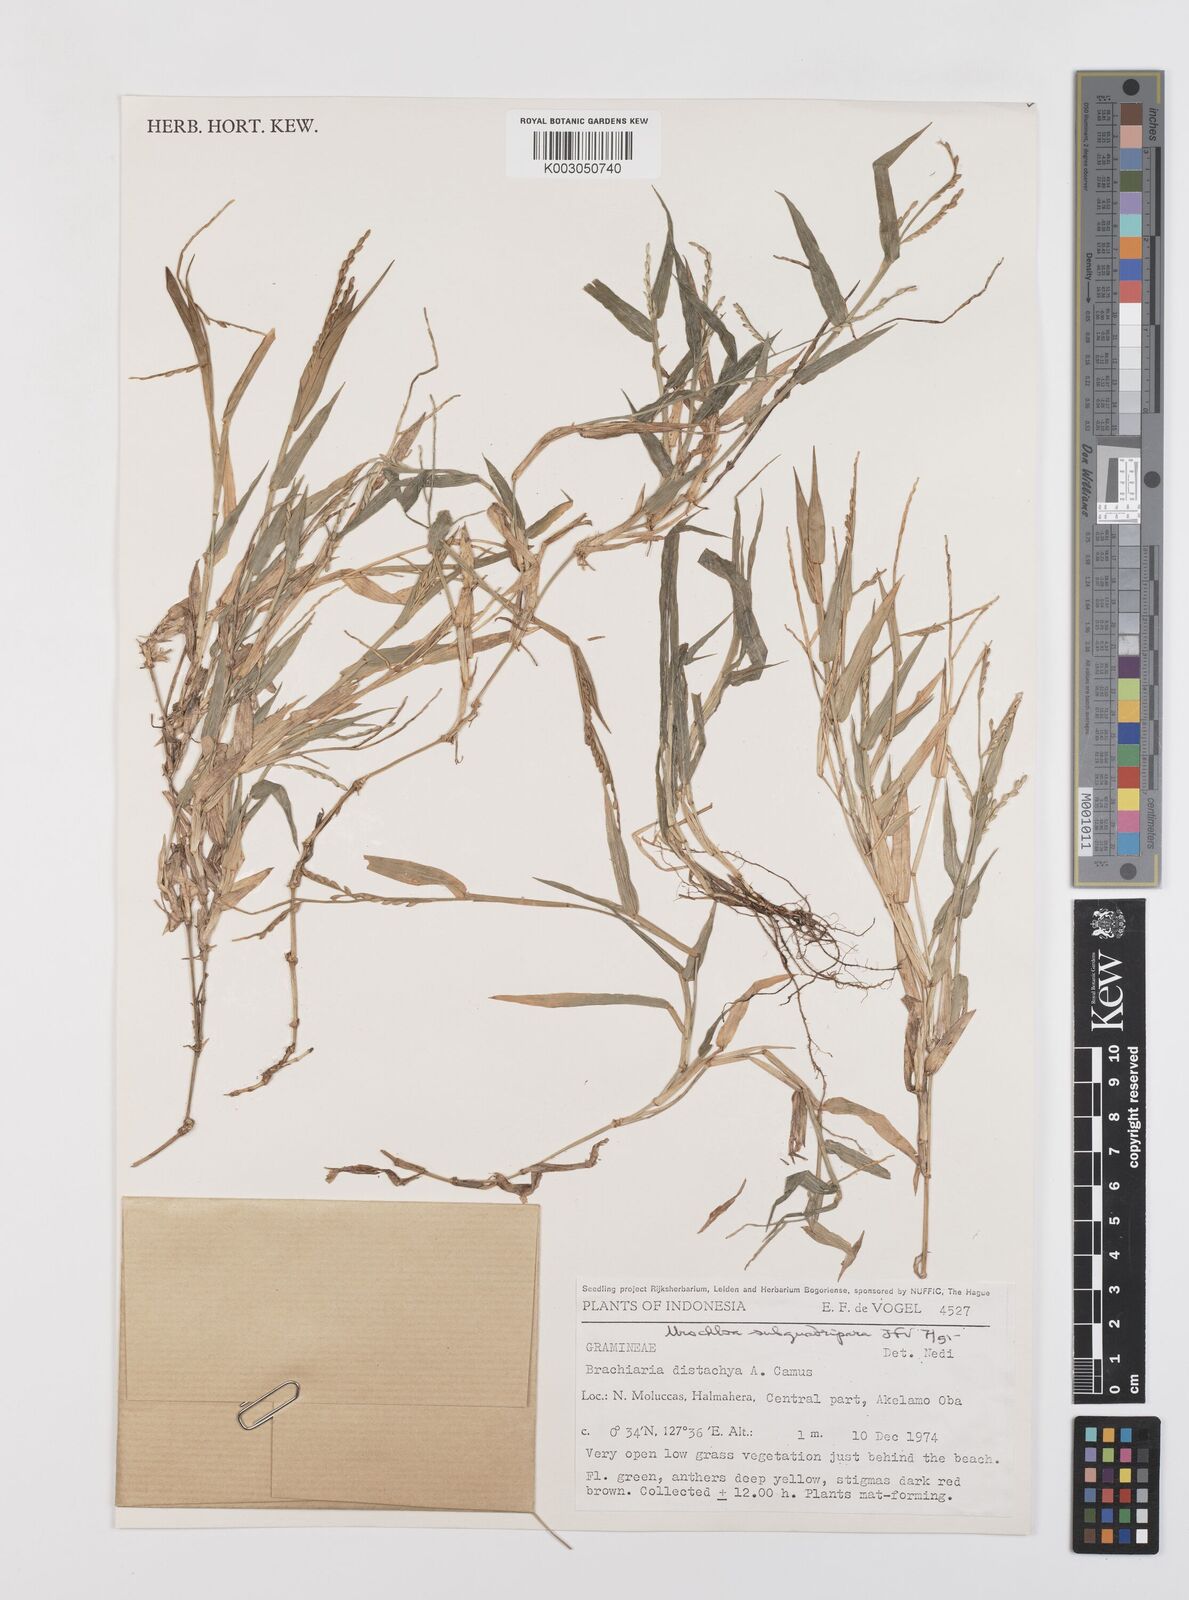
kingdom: Plantae
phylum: Tracheophyta
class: Liliopsida
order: Poales
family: Poaceae
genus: Urochloa
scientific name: Urochloa subquadripara
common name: Armgrass millet
